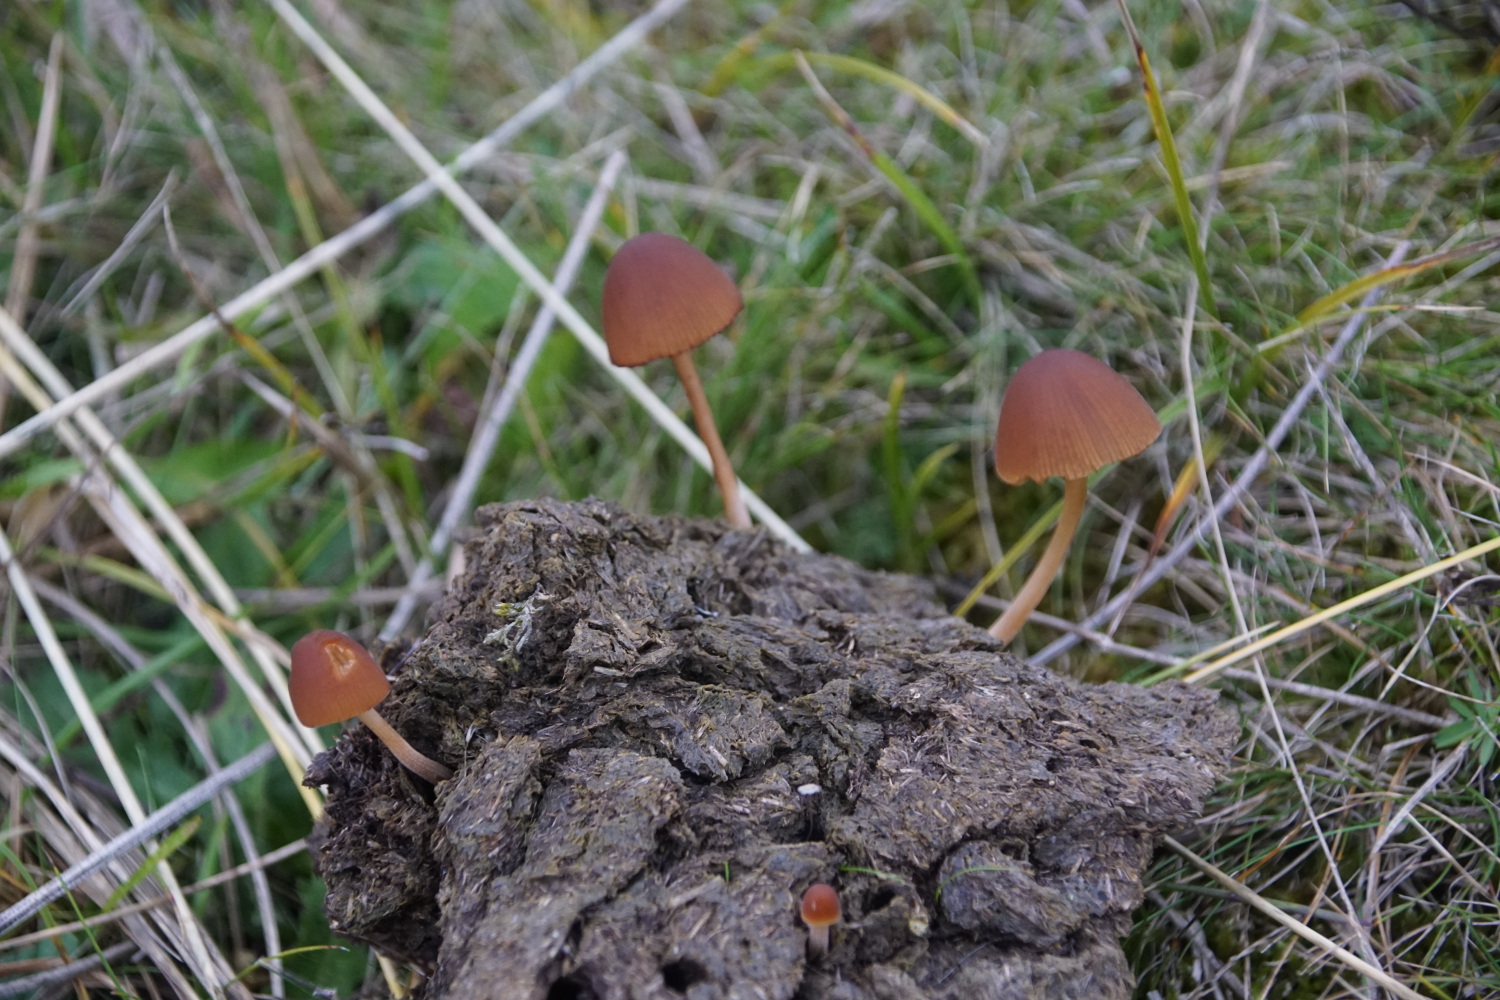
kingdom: Fungi
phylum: Basidiomycota
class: Agaricomycetes
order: Agaricales
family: Bolbitiaceae
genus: Conocybe
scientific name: Conocybe
